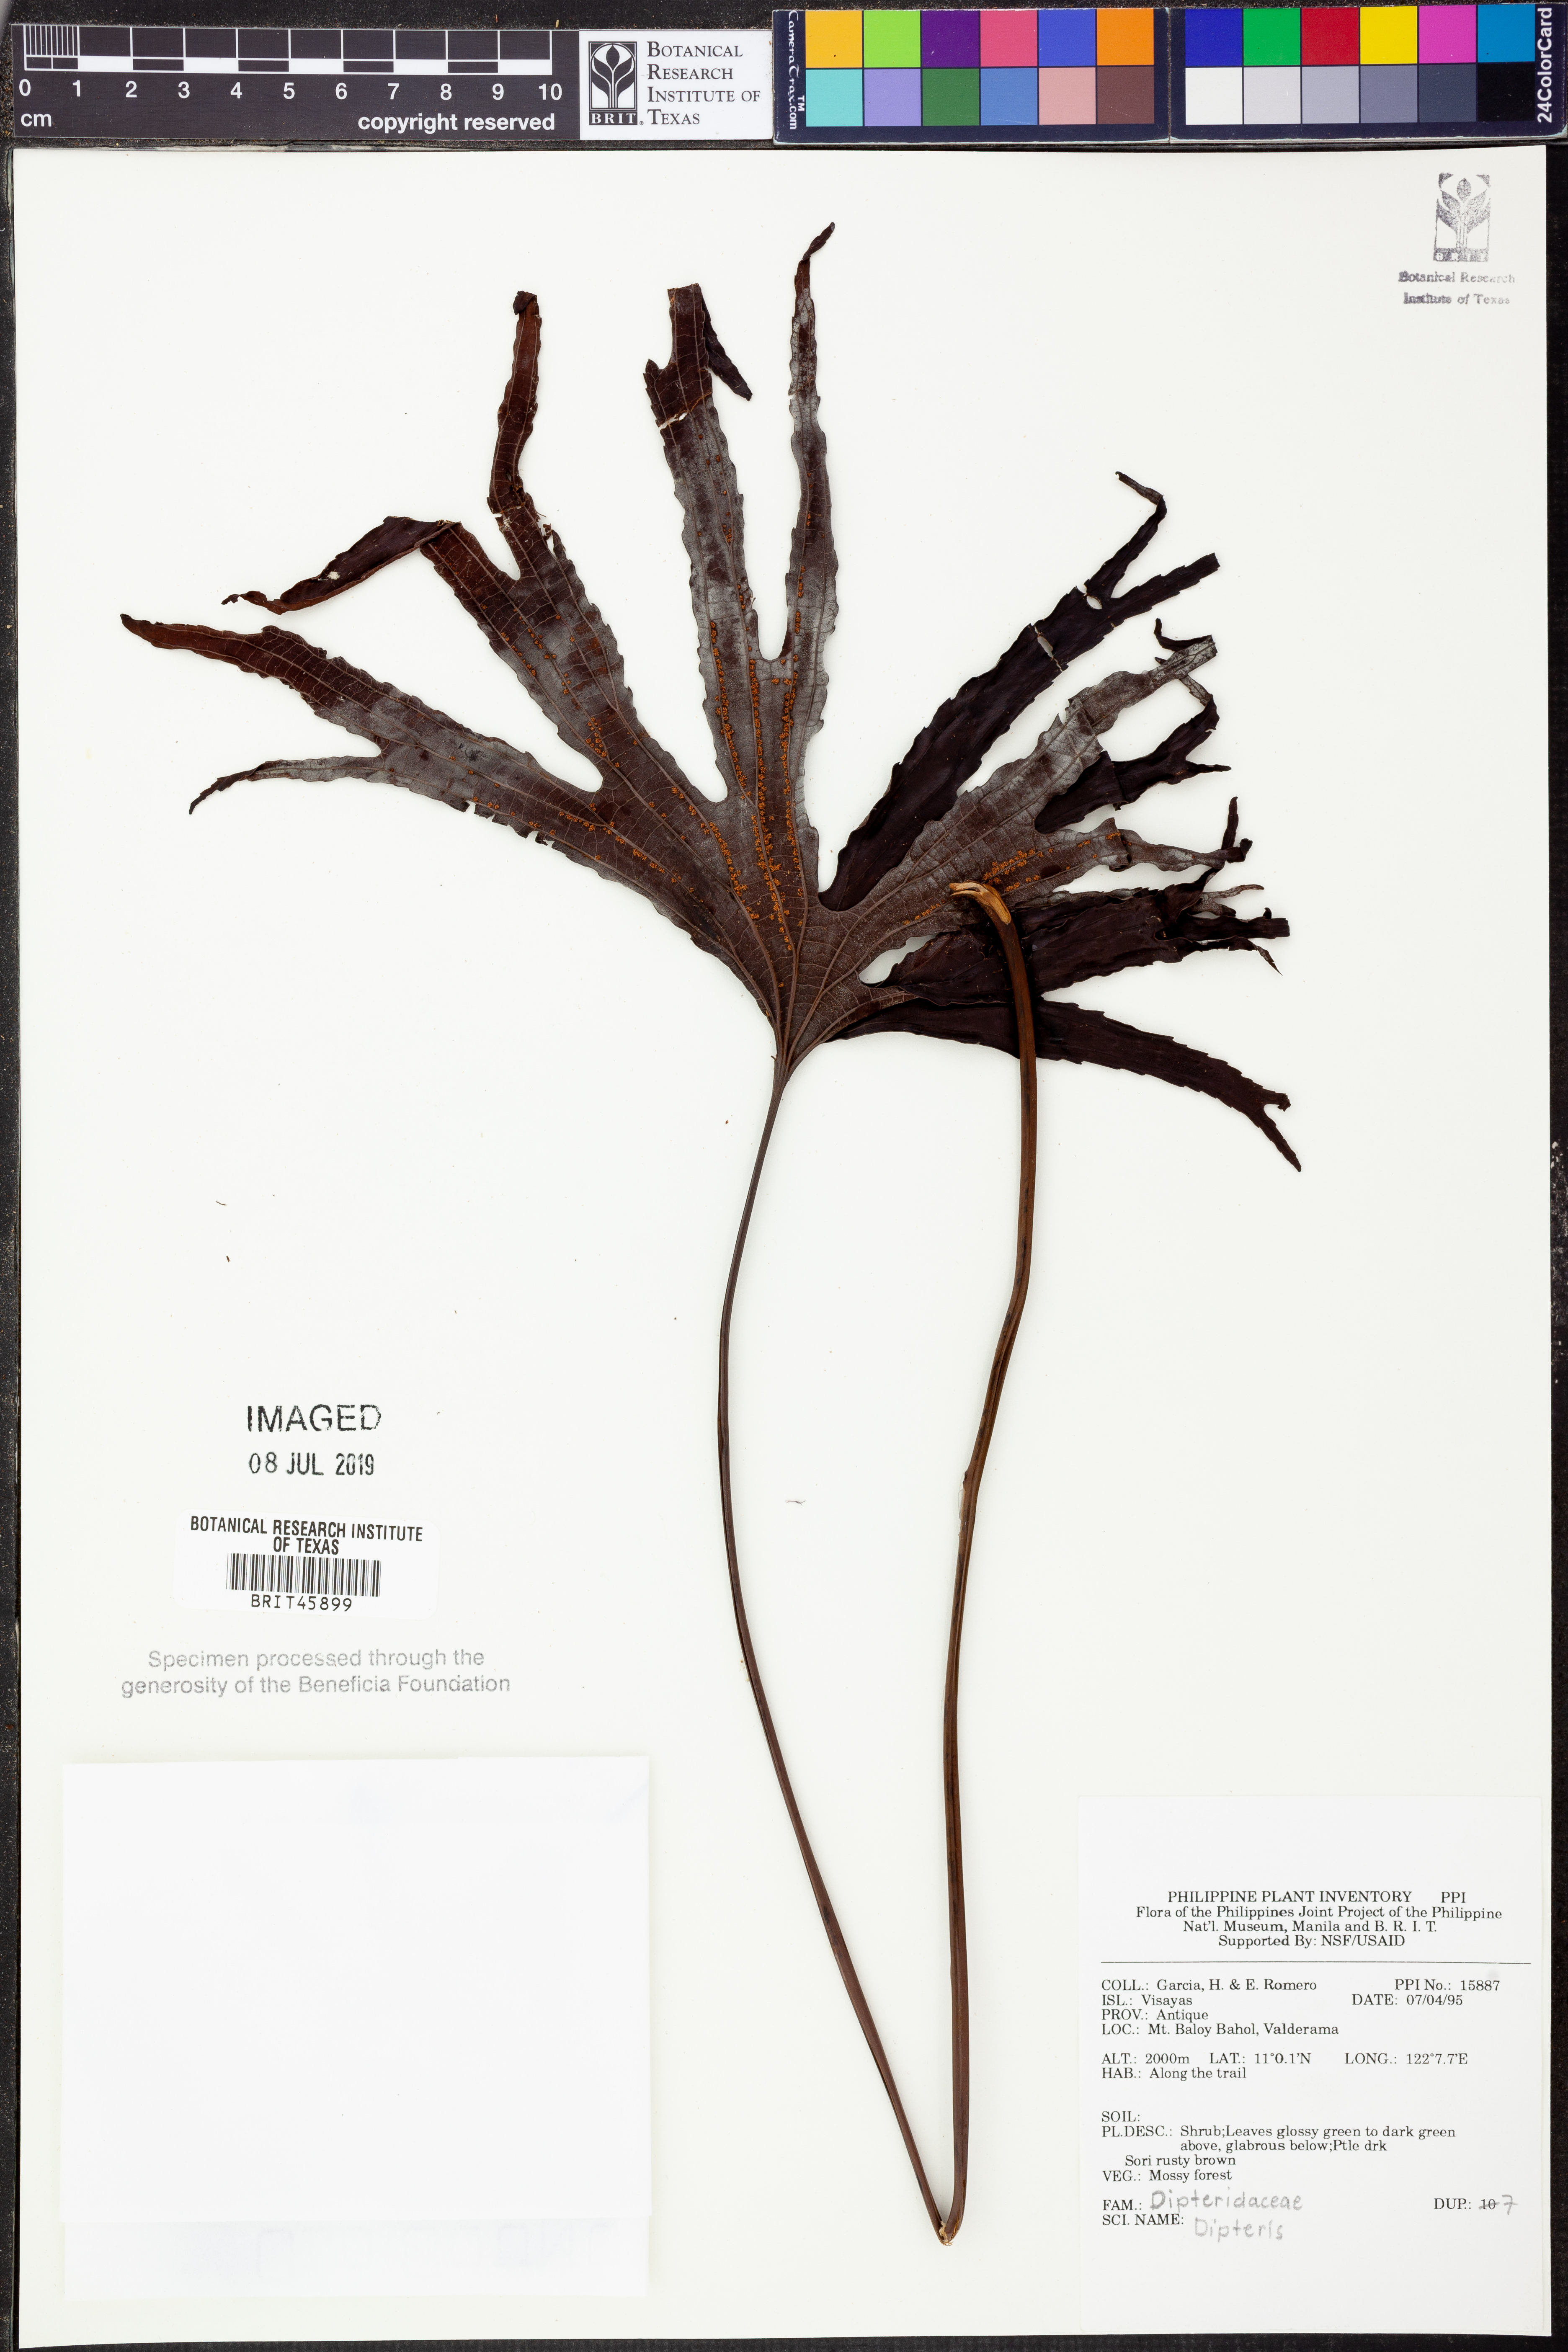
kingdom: Plantae
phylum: Tracheophyta
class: Polypodiopsida
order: Gleicheniales
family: Dipteridaceae
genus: Dipteris
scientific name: Dipteris
